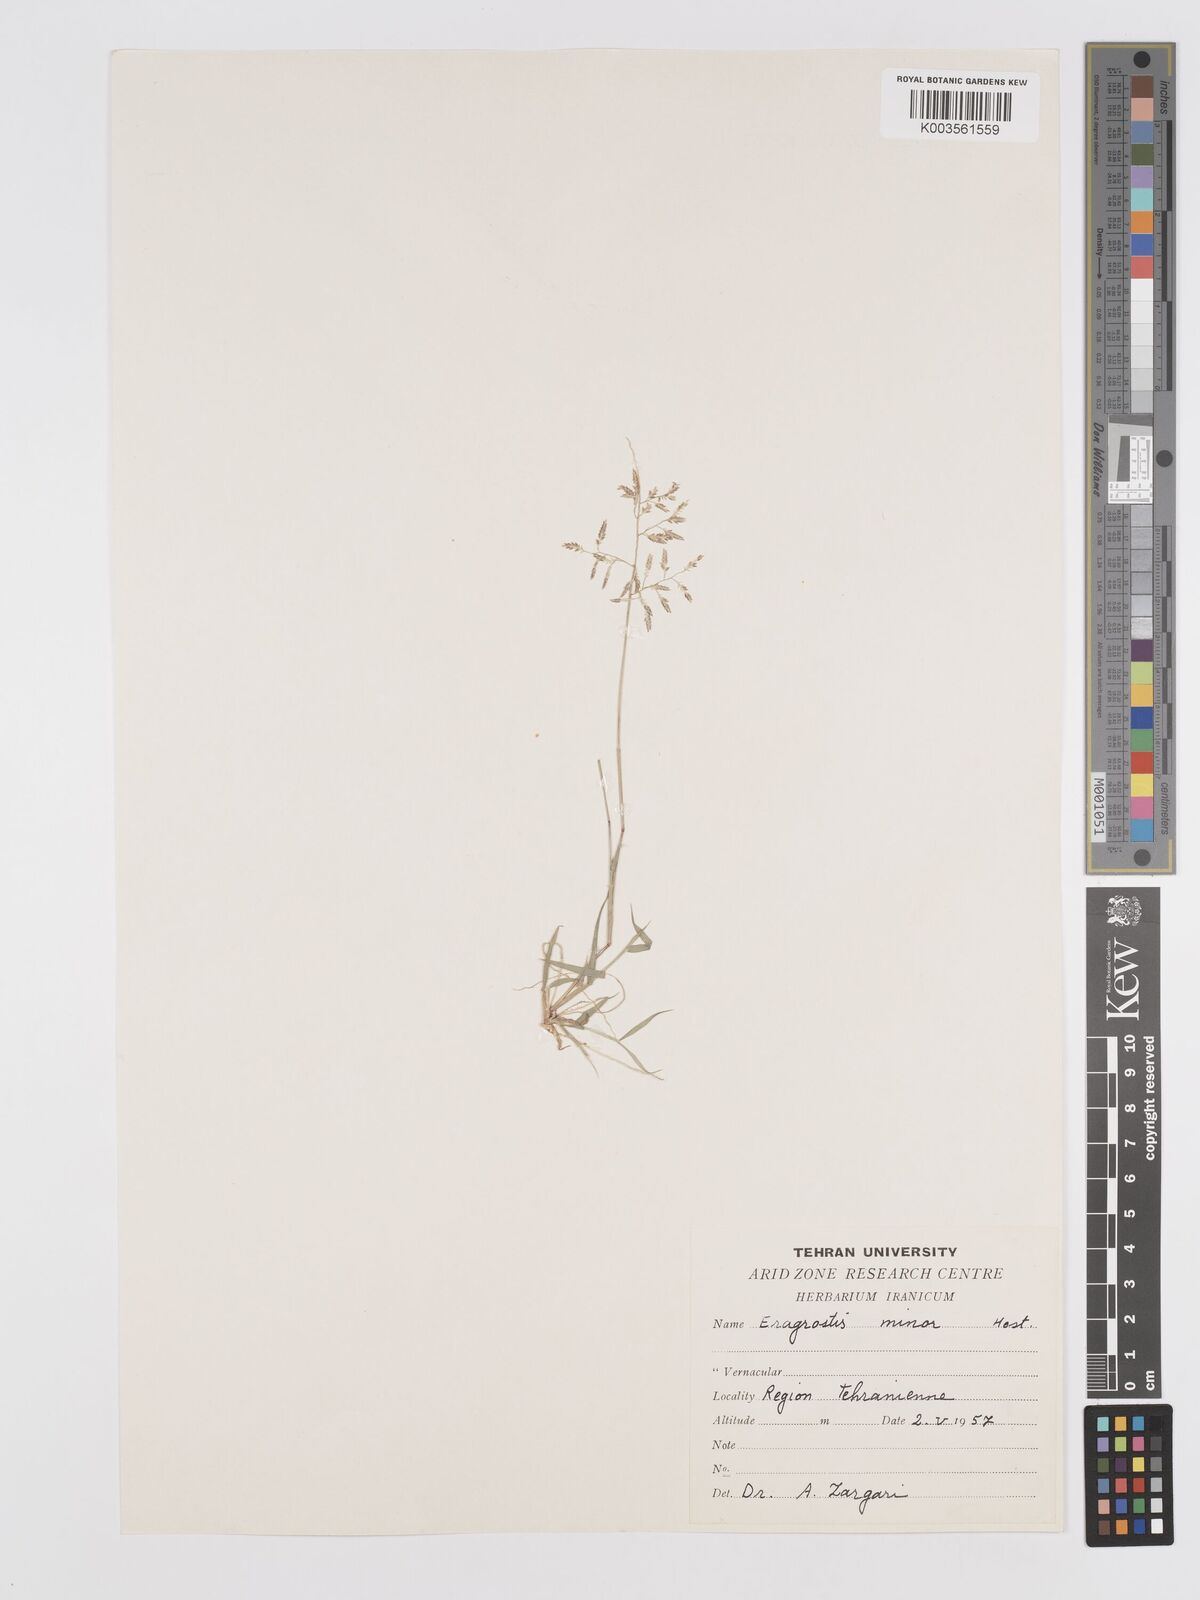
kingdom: Plantae
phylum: Tracheophyta
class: Liliopsida
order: Poales
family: Poaceae
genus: Eragrostis
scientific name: Eragrostis minor
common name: Small love-grass
